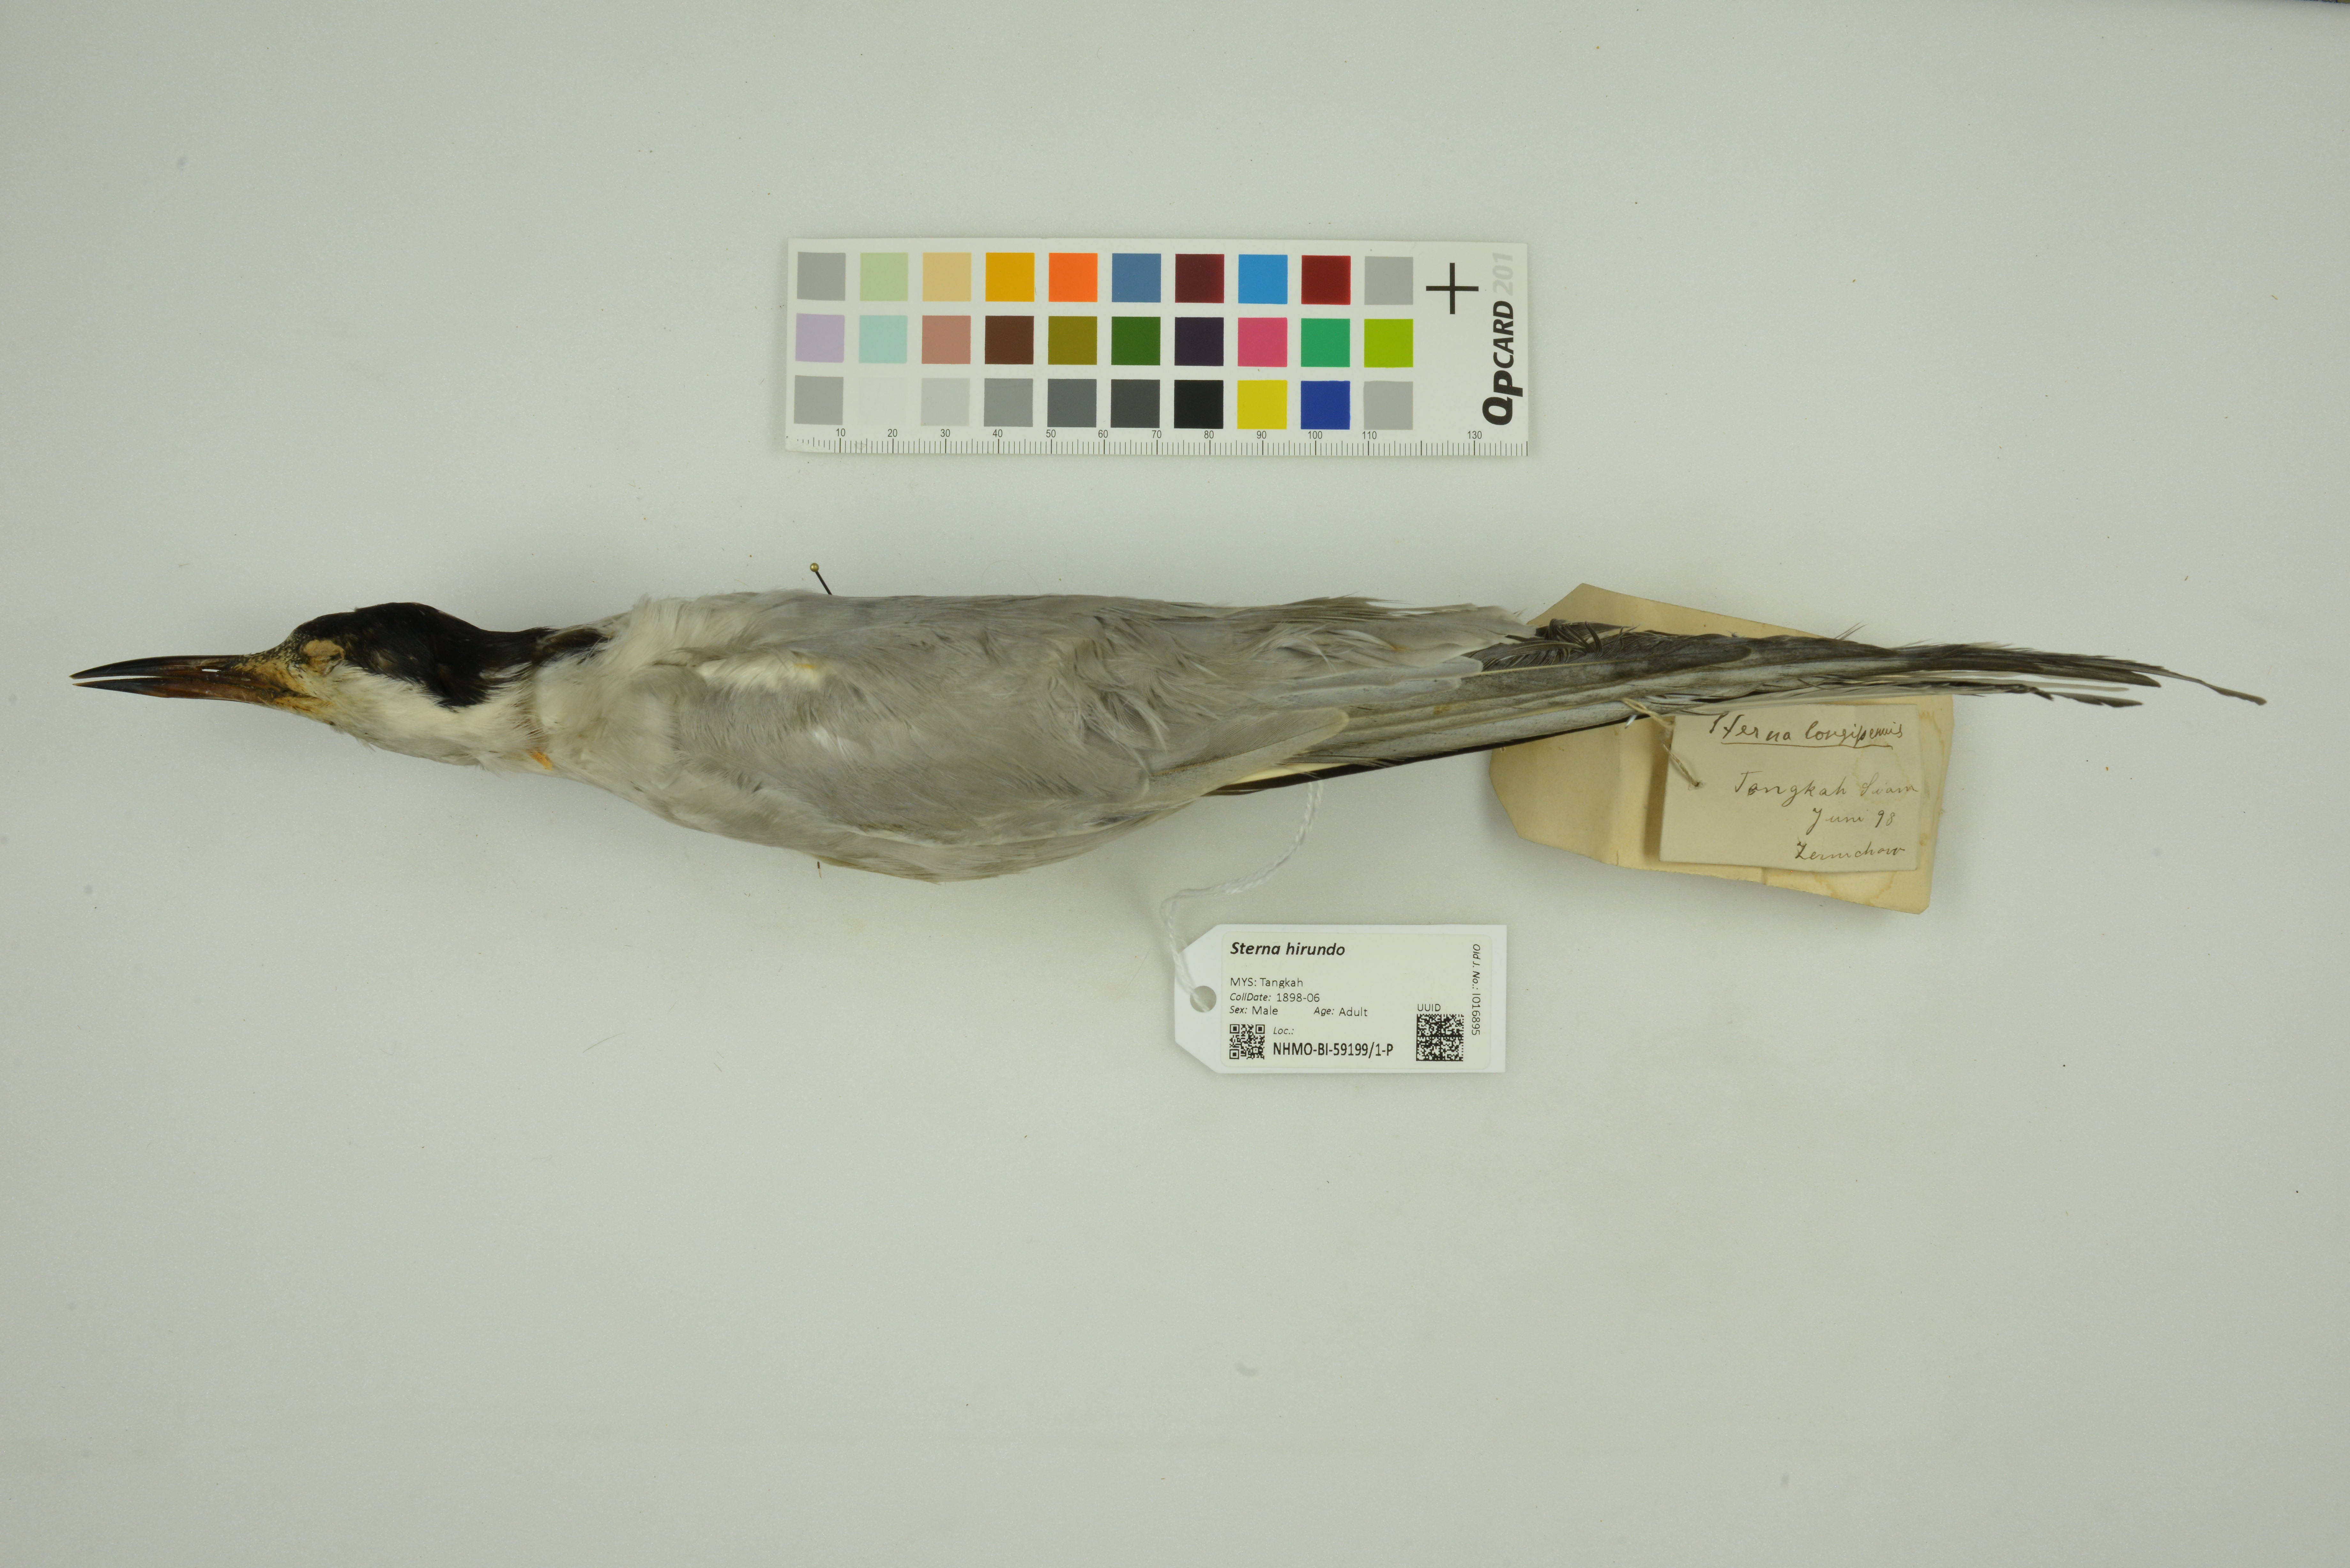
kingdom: Animalia
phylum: Chordata
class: Aves
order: Charadriiformes
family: Laridae
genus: Sterna
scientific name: Sterna hirundo
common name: Common tern
